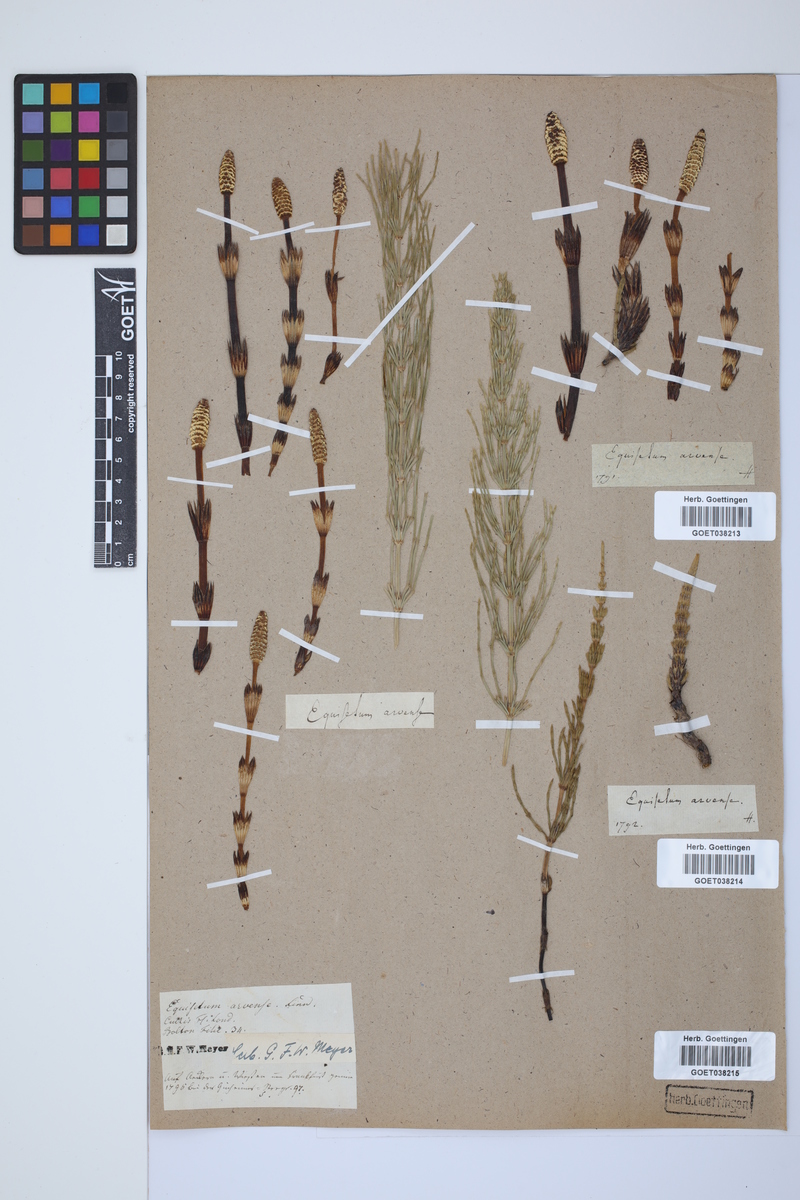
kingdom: Plantae
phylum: Tracheophyta
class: Polypodiopsida
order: Equisetales
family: Equisetaceae
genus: Equisetum
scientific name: Equisetum arvense
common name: Field horsetail
